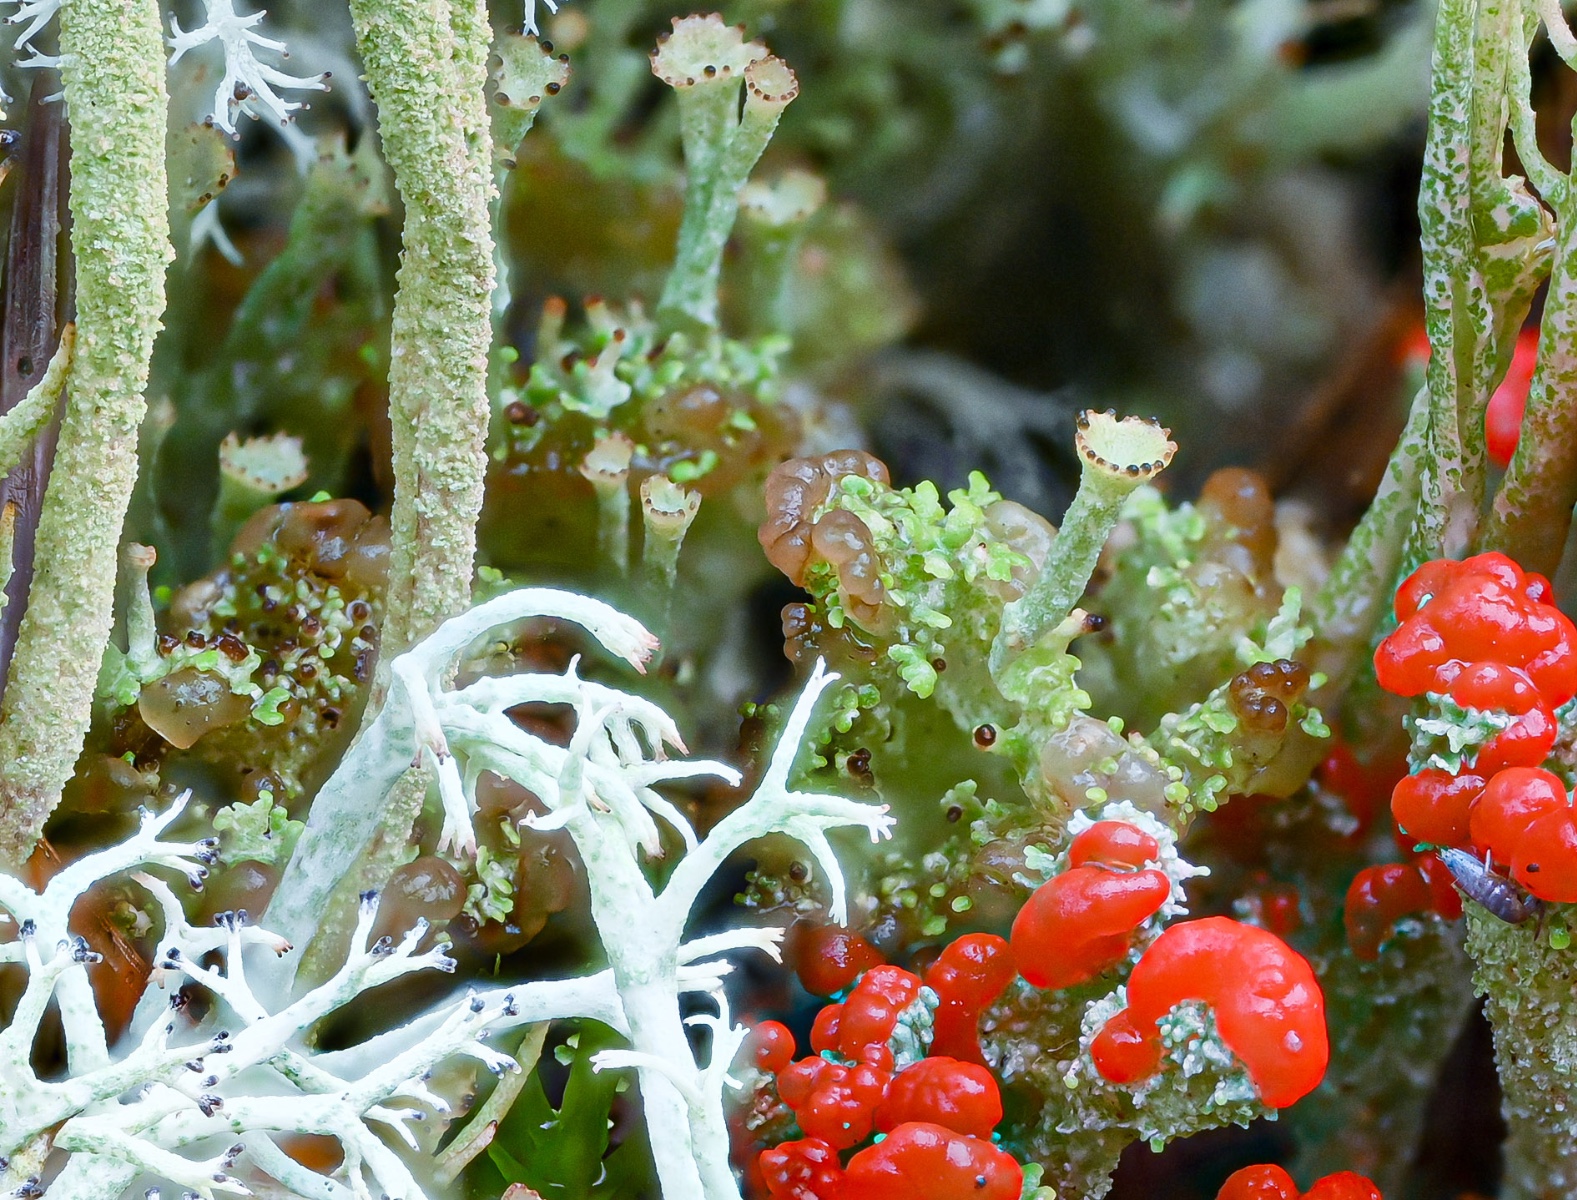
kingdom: Fungi
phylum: Basidiomycota
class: Tremellomycetes
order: Filobasidiales
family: Filobasidiaceae
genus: Zyzygomyces
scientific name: Zyzygomyces bachmannii
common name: rensdyrlav-snyltehjerne
